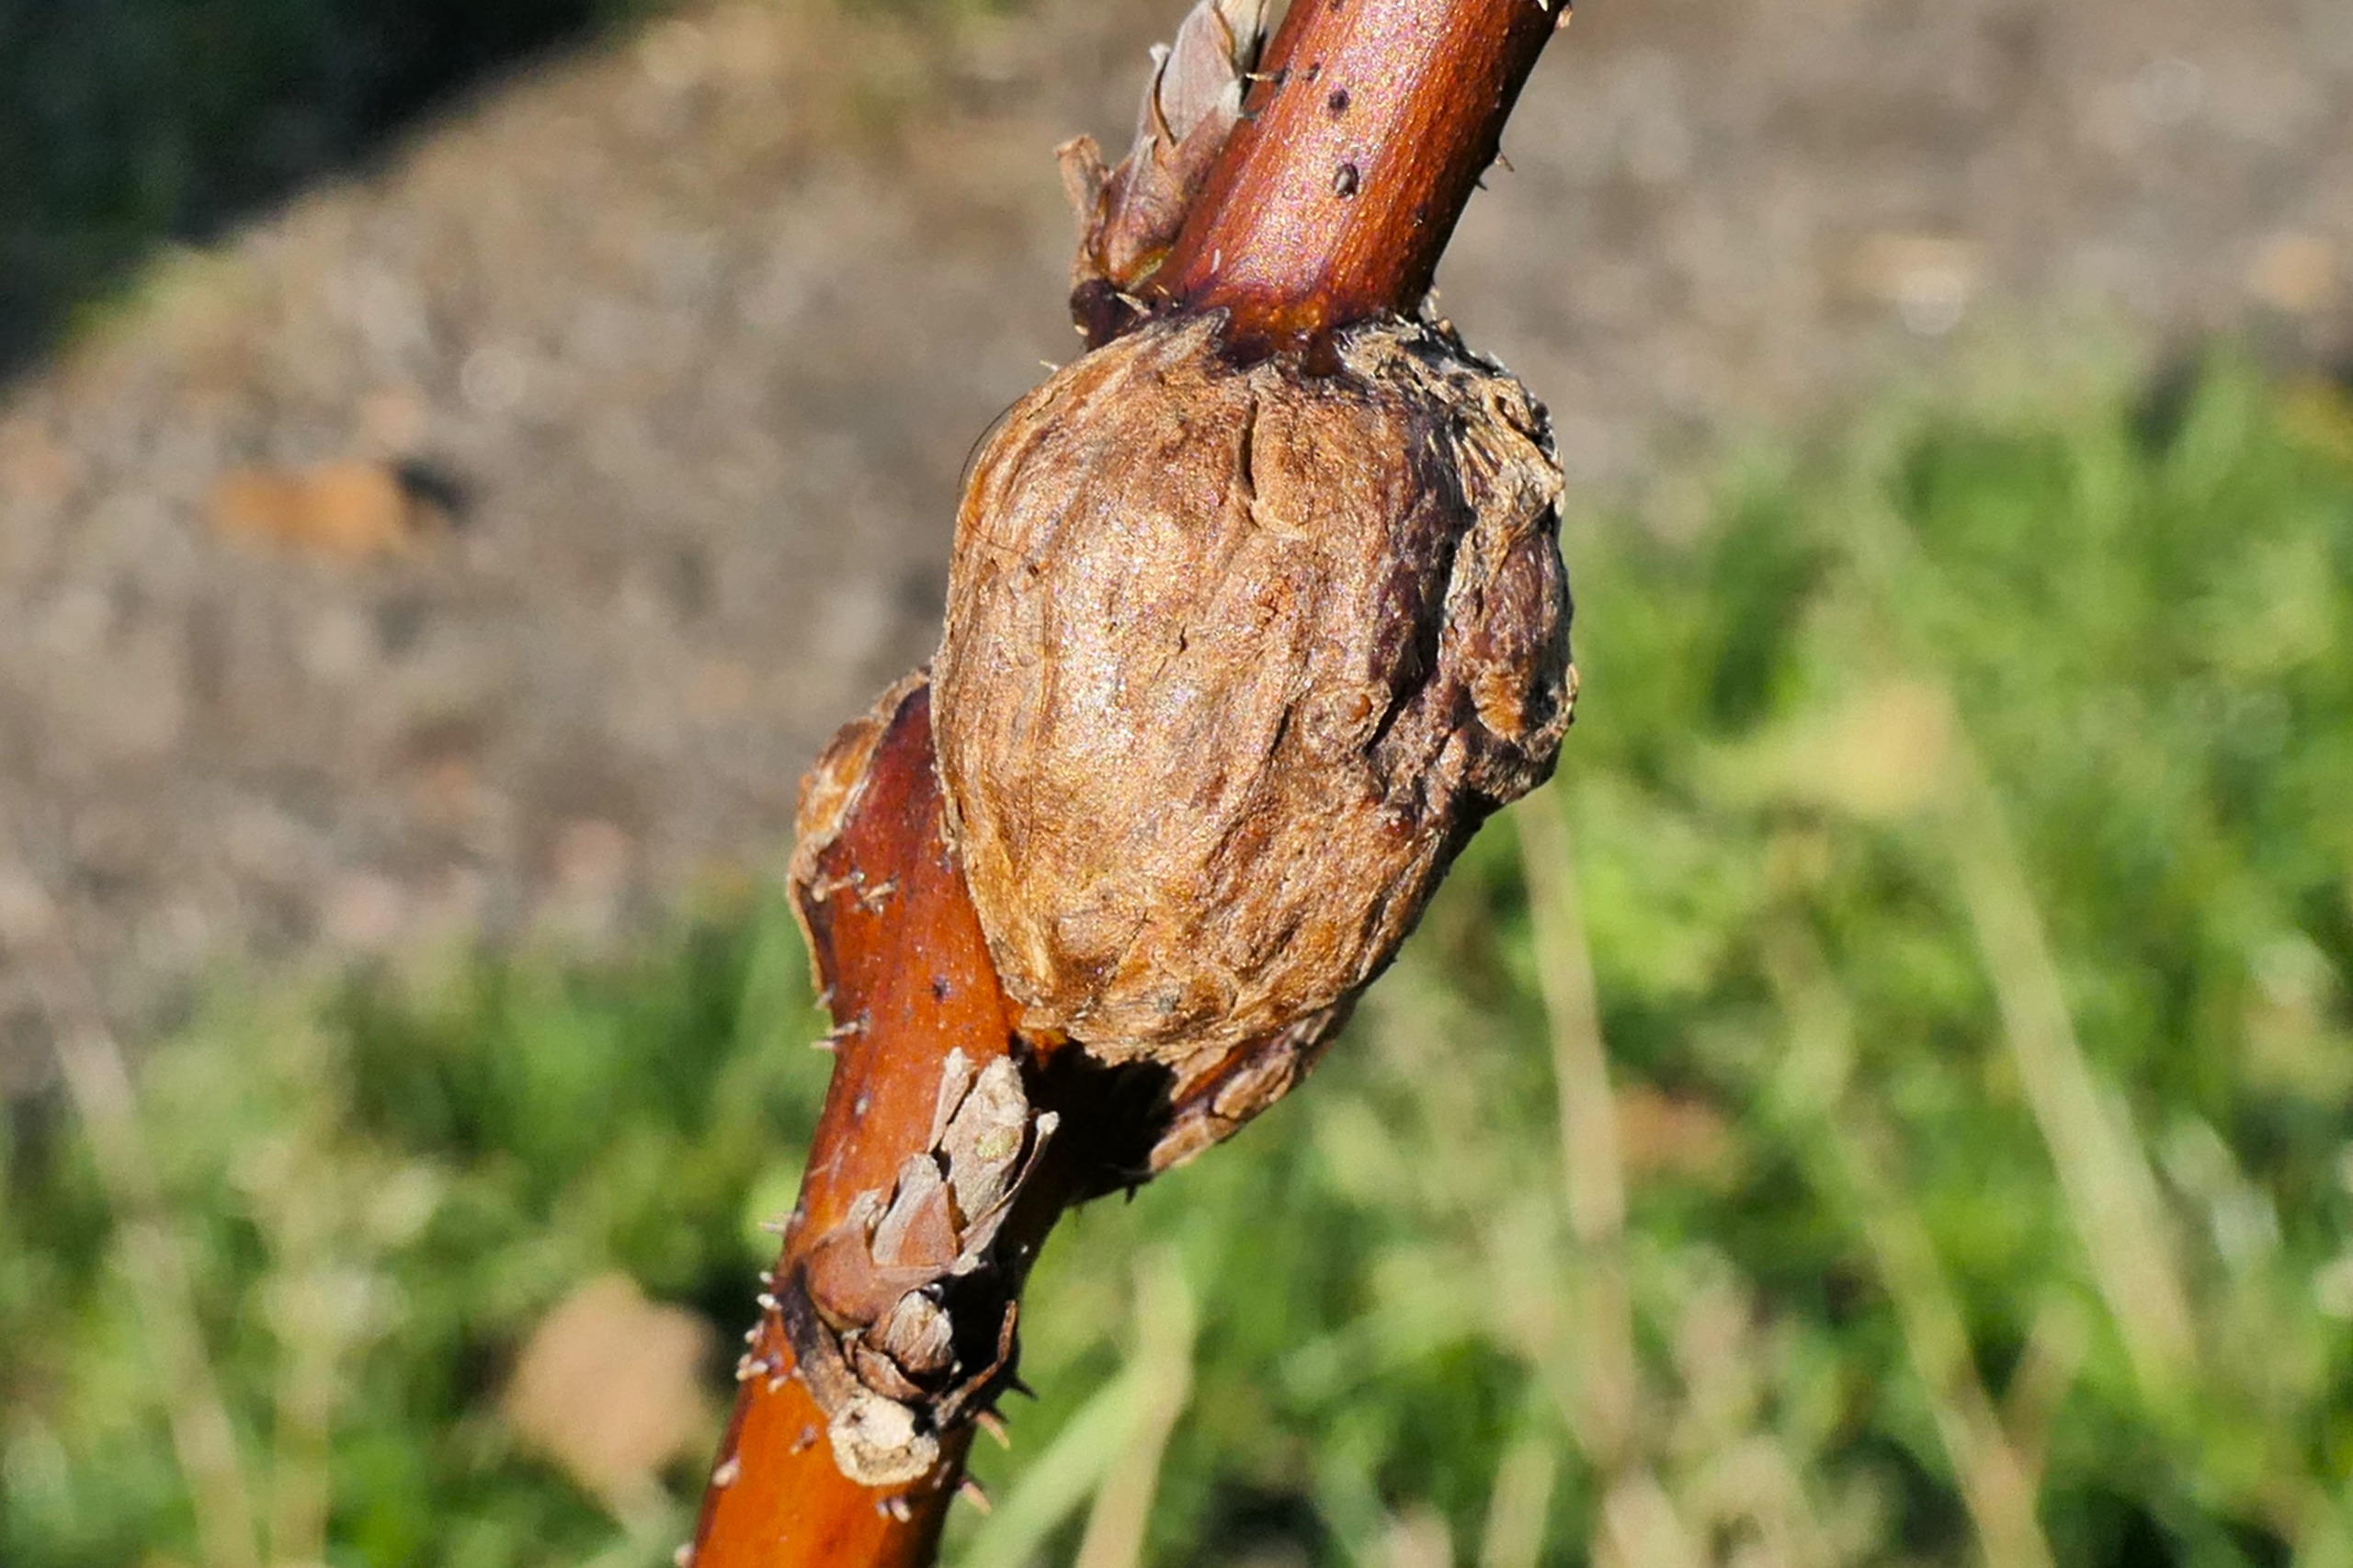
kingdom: Animalia
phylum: Arthropoda
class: Insecta
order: Diptera
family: Cecidomyiidae
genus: Lasioptera
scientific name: Lasioptera rubi
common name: Hindbærstængelgalmyg
